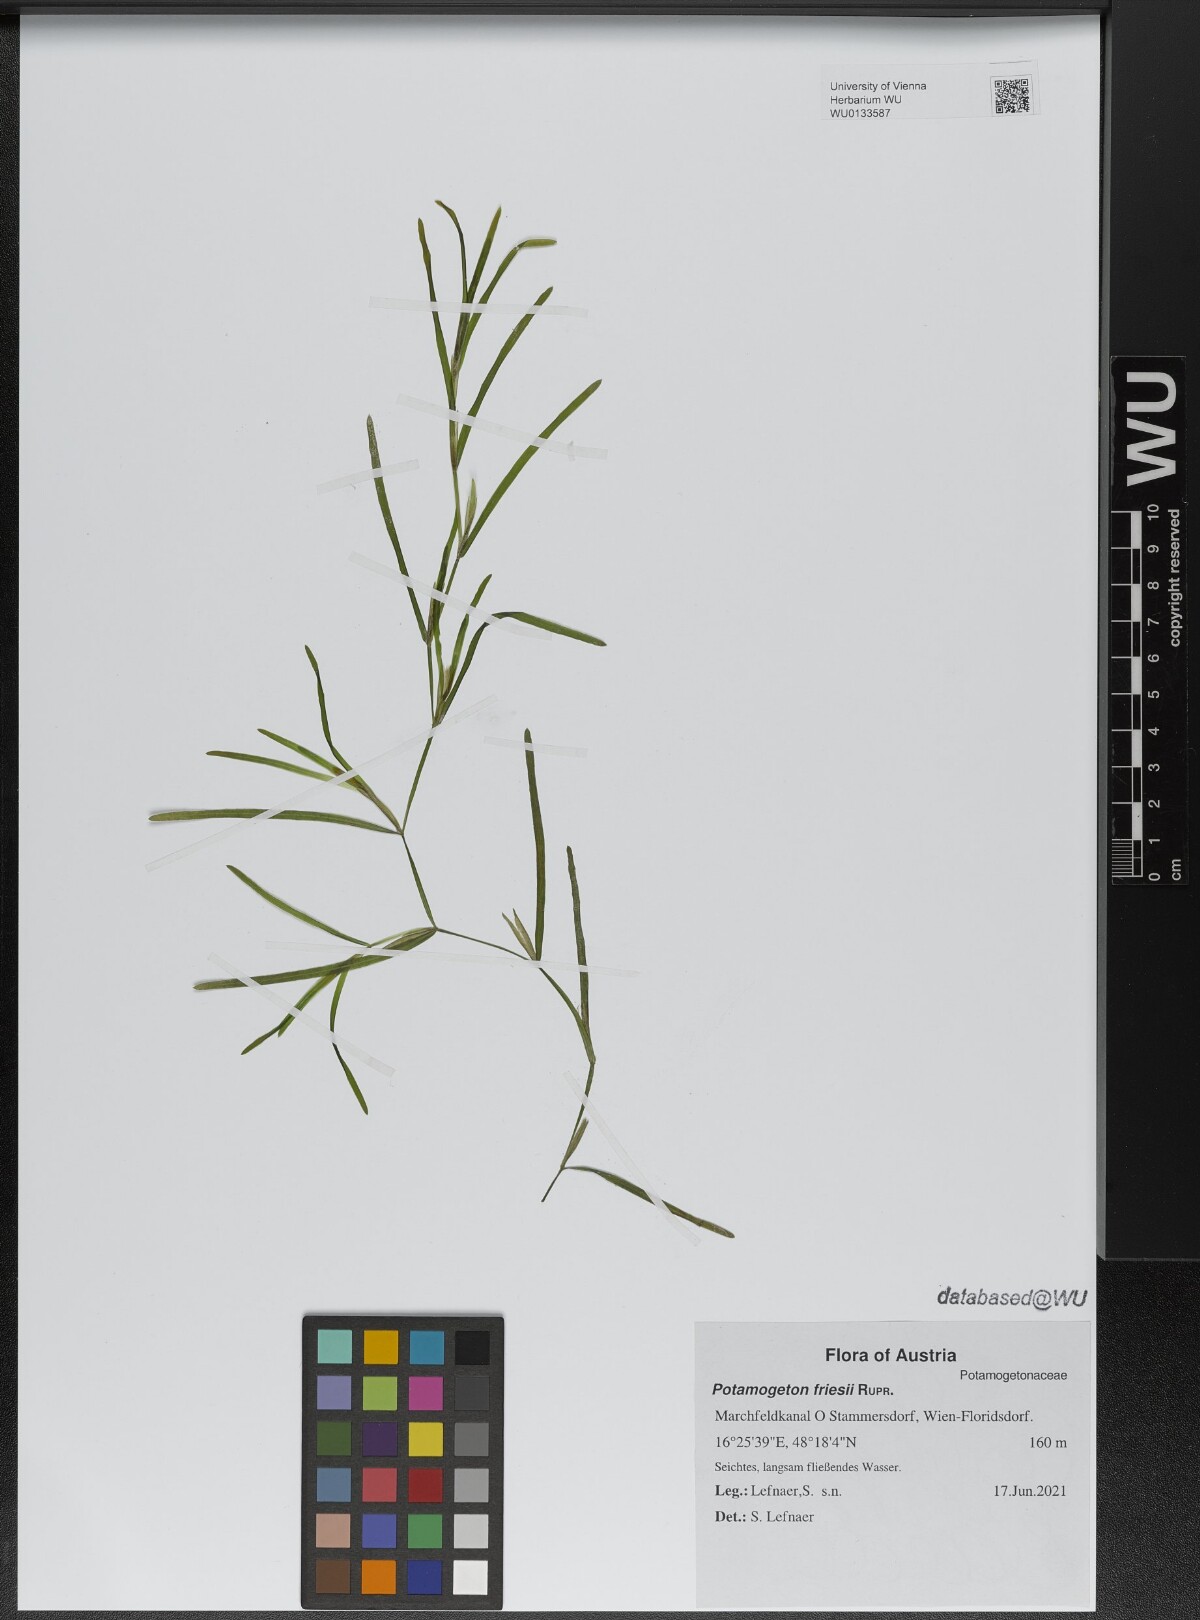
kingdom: Plantae
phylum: Tracheophyta
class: Liliopsida
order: Alismatales
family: Potamogetonaceae
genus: Potamogeton
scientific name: Potamogeton friesii
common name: Flat-stalked pondweed
